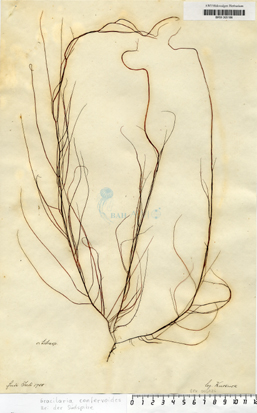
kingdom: Plantae
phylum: Rhodophyta
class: Florideophyceae
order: Gracilariales
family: Gracilariaceae
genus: Gracilaria
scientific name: Gracilaria gracilis
